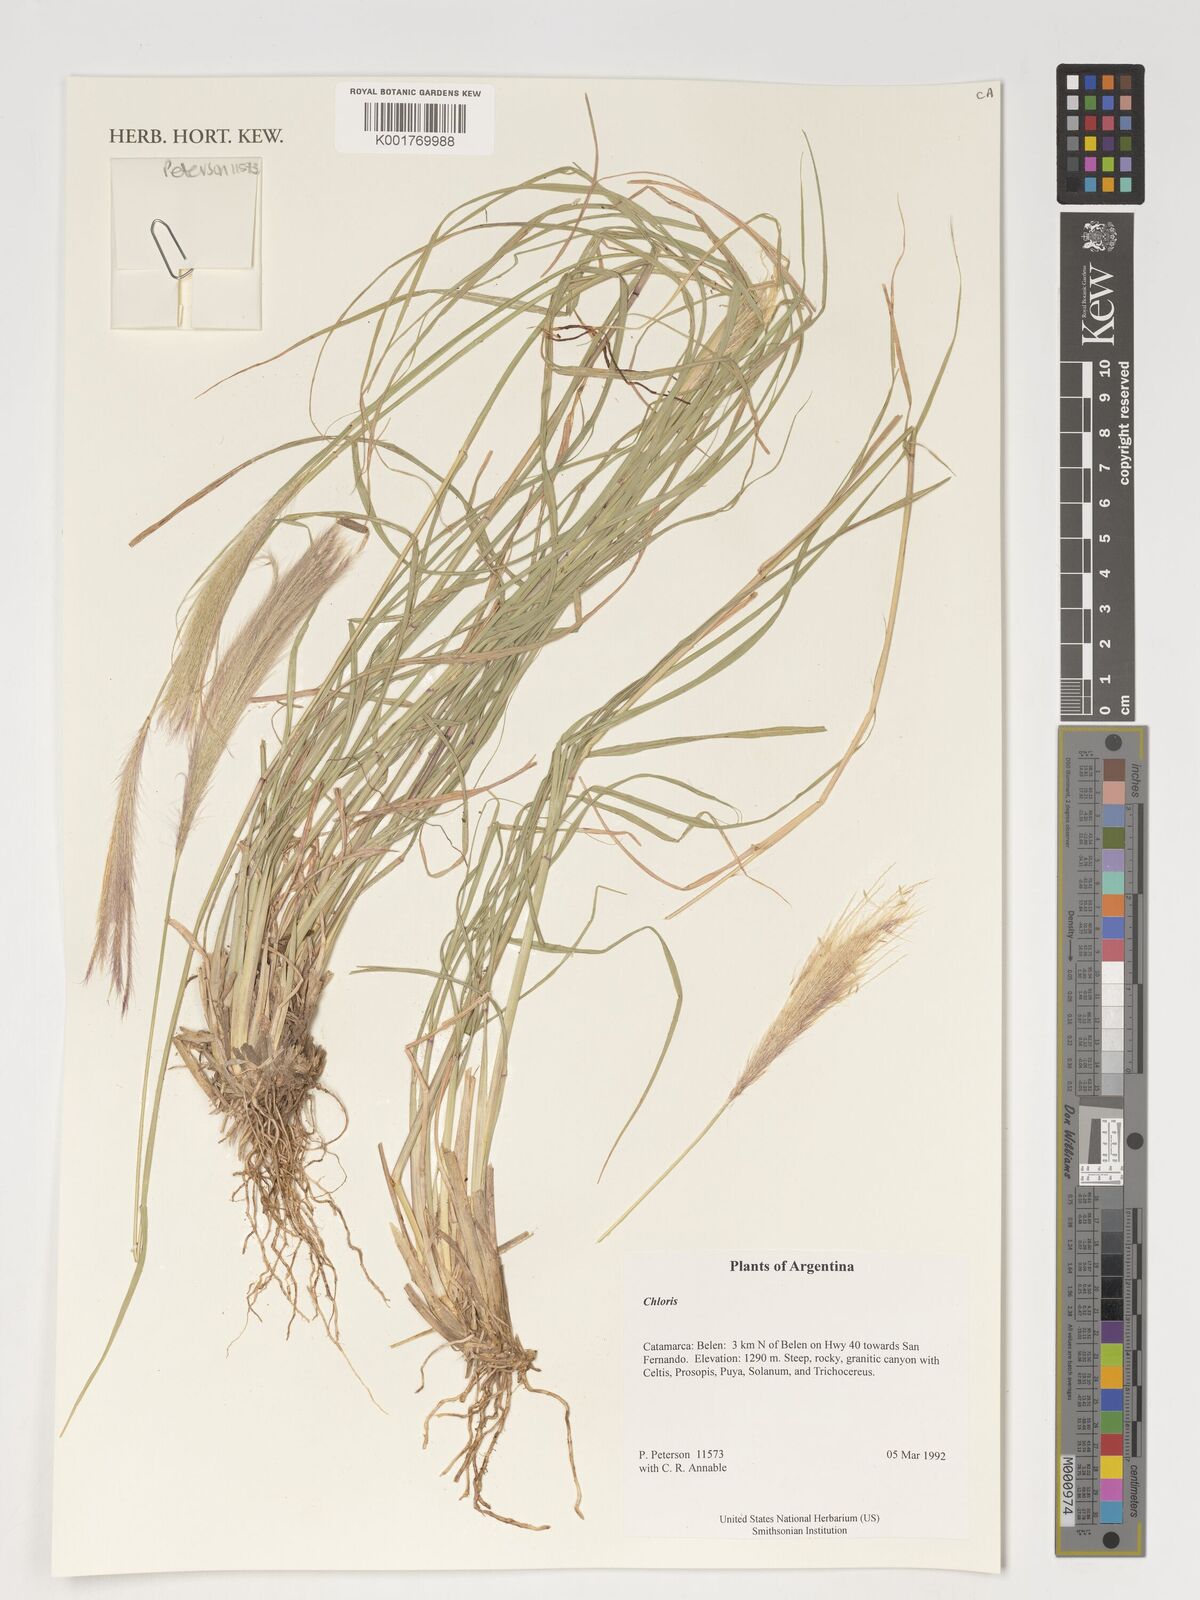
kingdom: Plantae
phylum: Tracheophyta
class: Liliopsida
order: Poales
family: Poaceae
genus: Chloris
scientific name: Chloris
